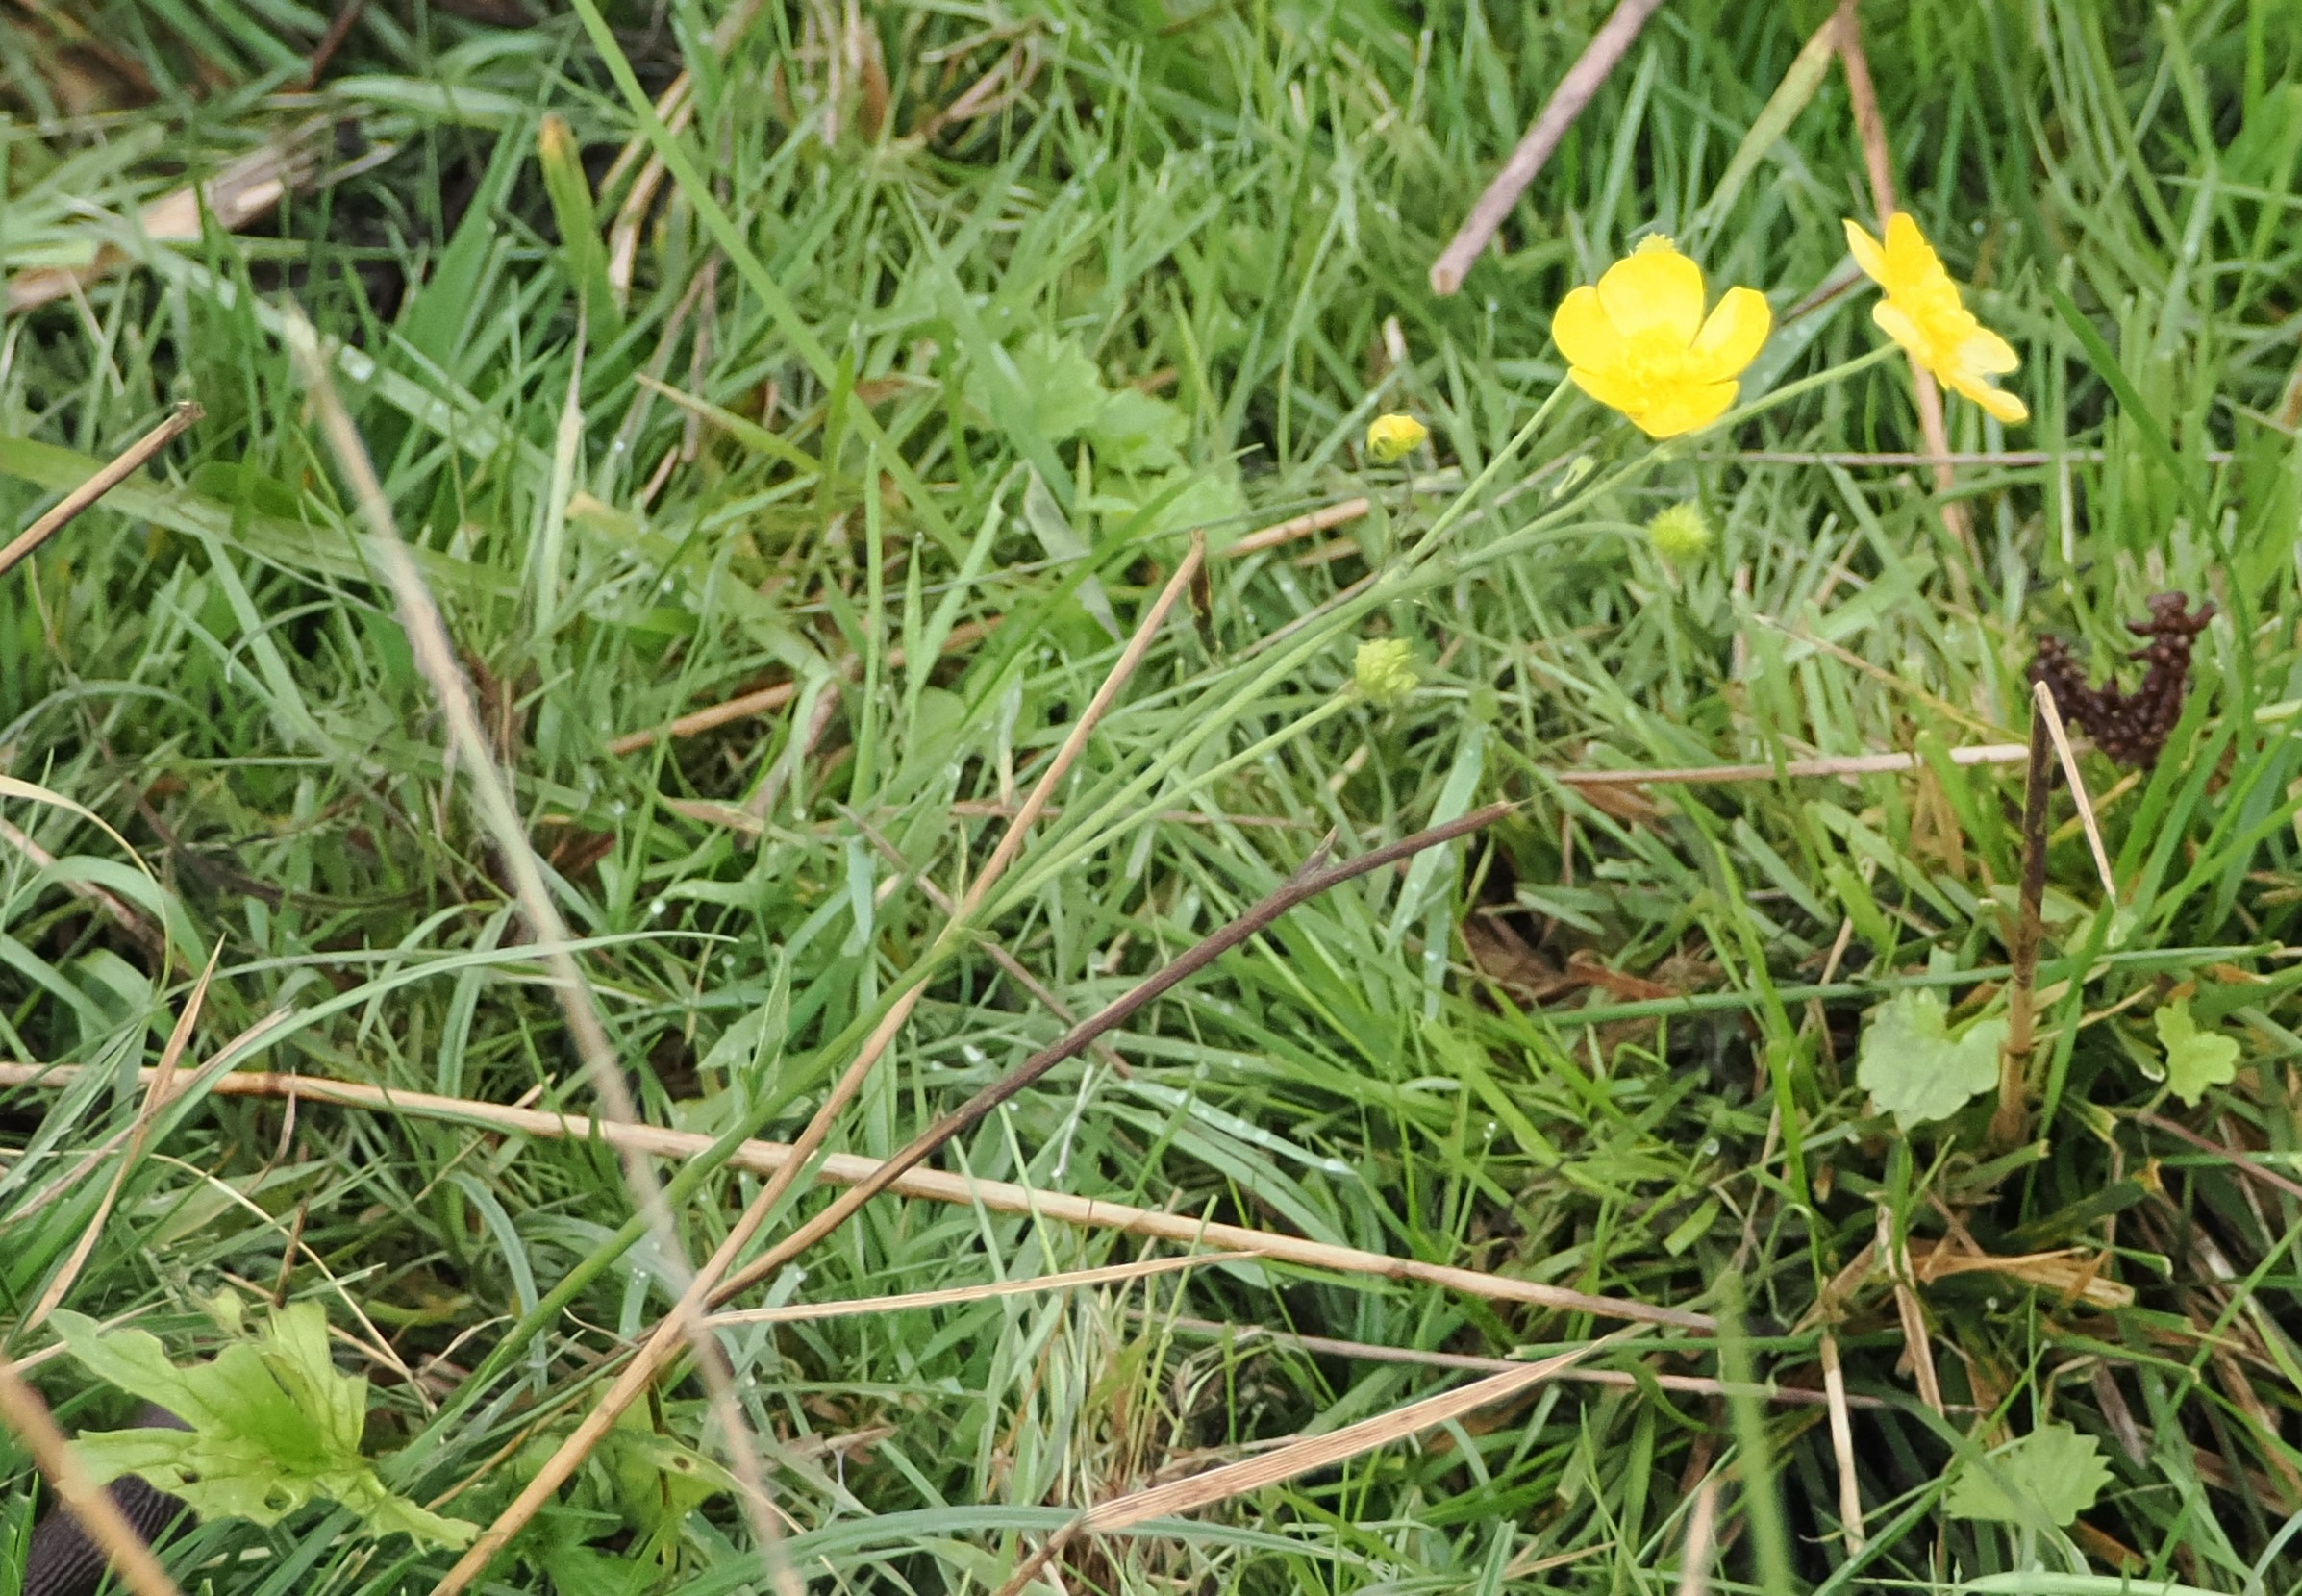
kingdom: Plantae
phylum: Tracheophyta
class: Magnoliopsida
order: Ranunculales
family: Ranunculaceae
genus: Ranunculus
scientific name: Ranunculus acris
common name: Bidende ranunkel
